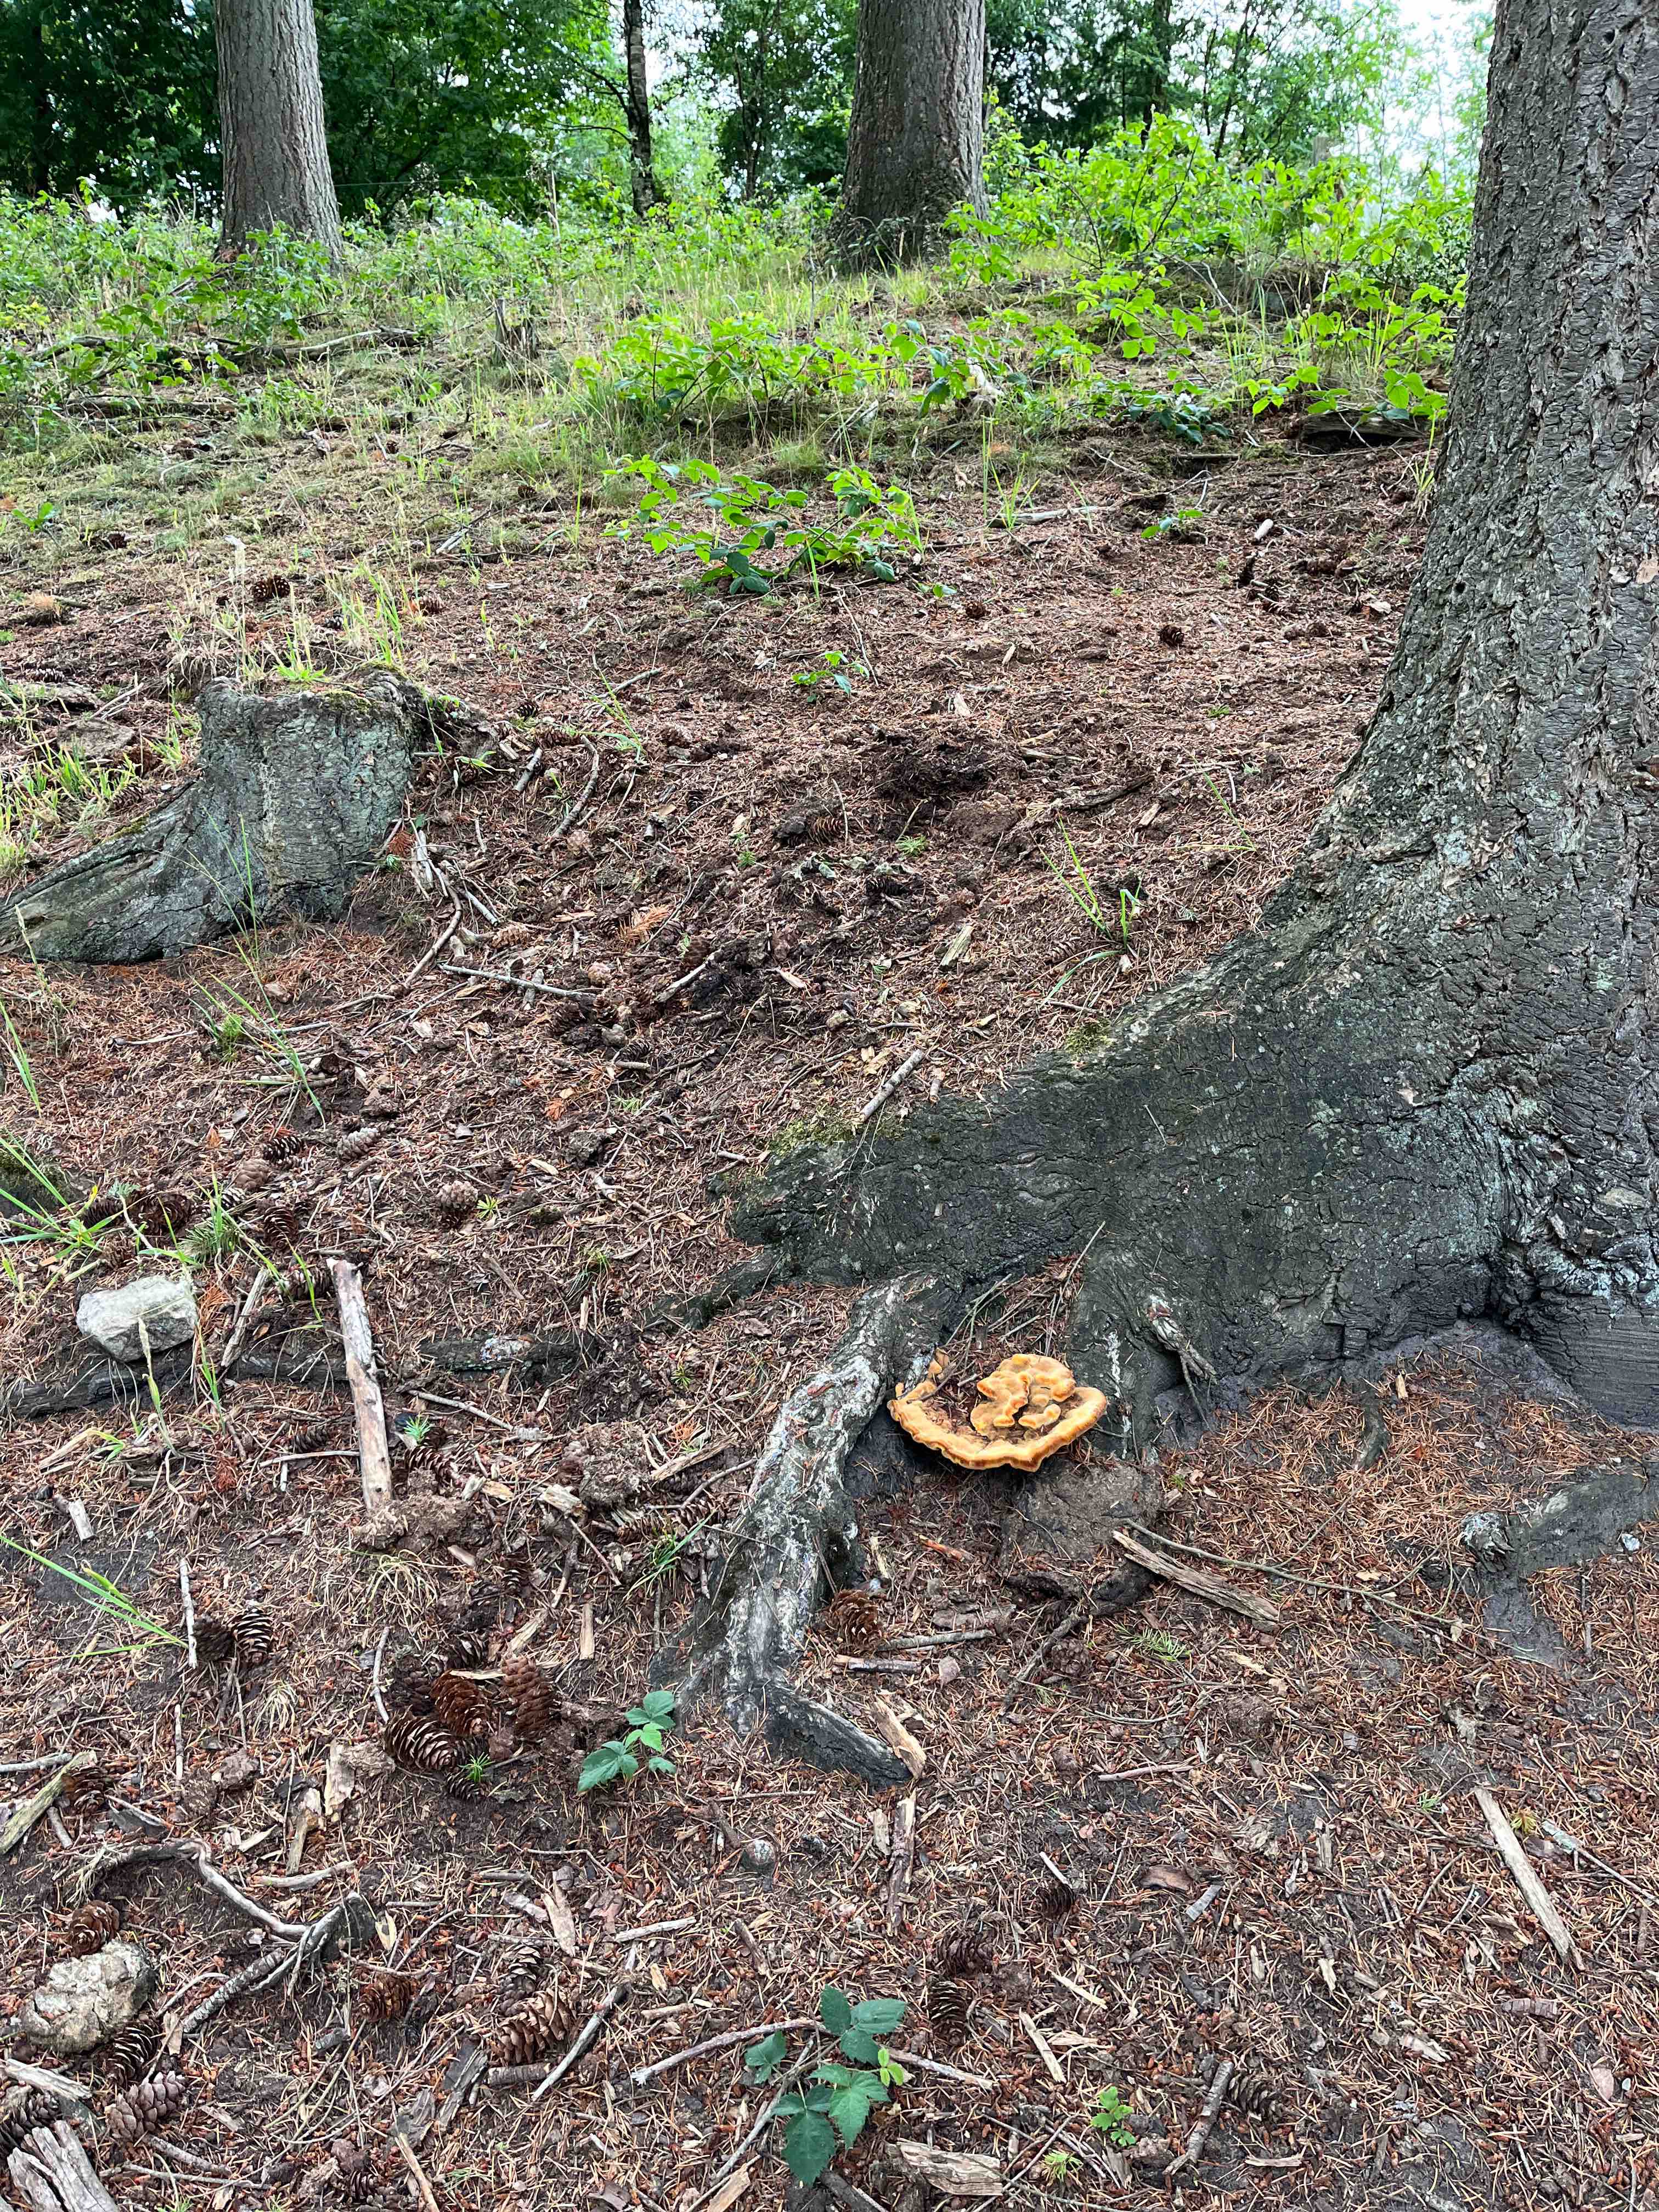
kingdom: Fungi
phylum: Basidiomycota
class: Agaricomycetes
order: Polyporales
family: Laetiporaceae
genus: Phaeolus
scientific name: Phaeolus schweinitzii
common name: brunporesvamp
